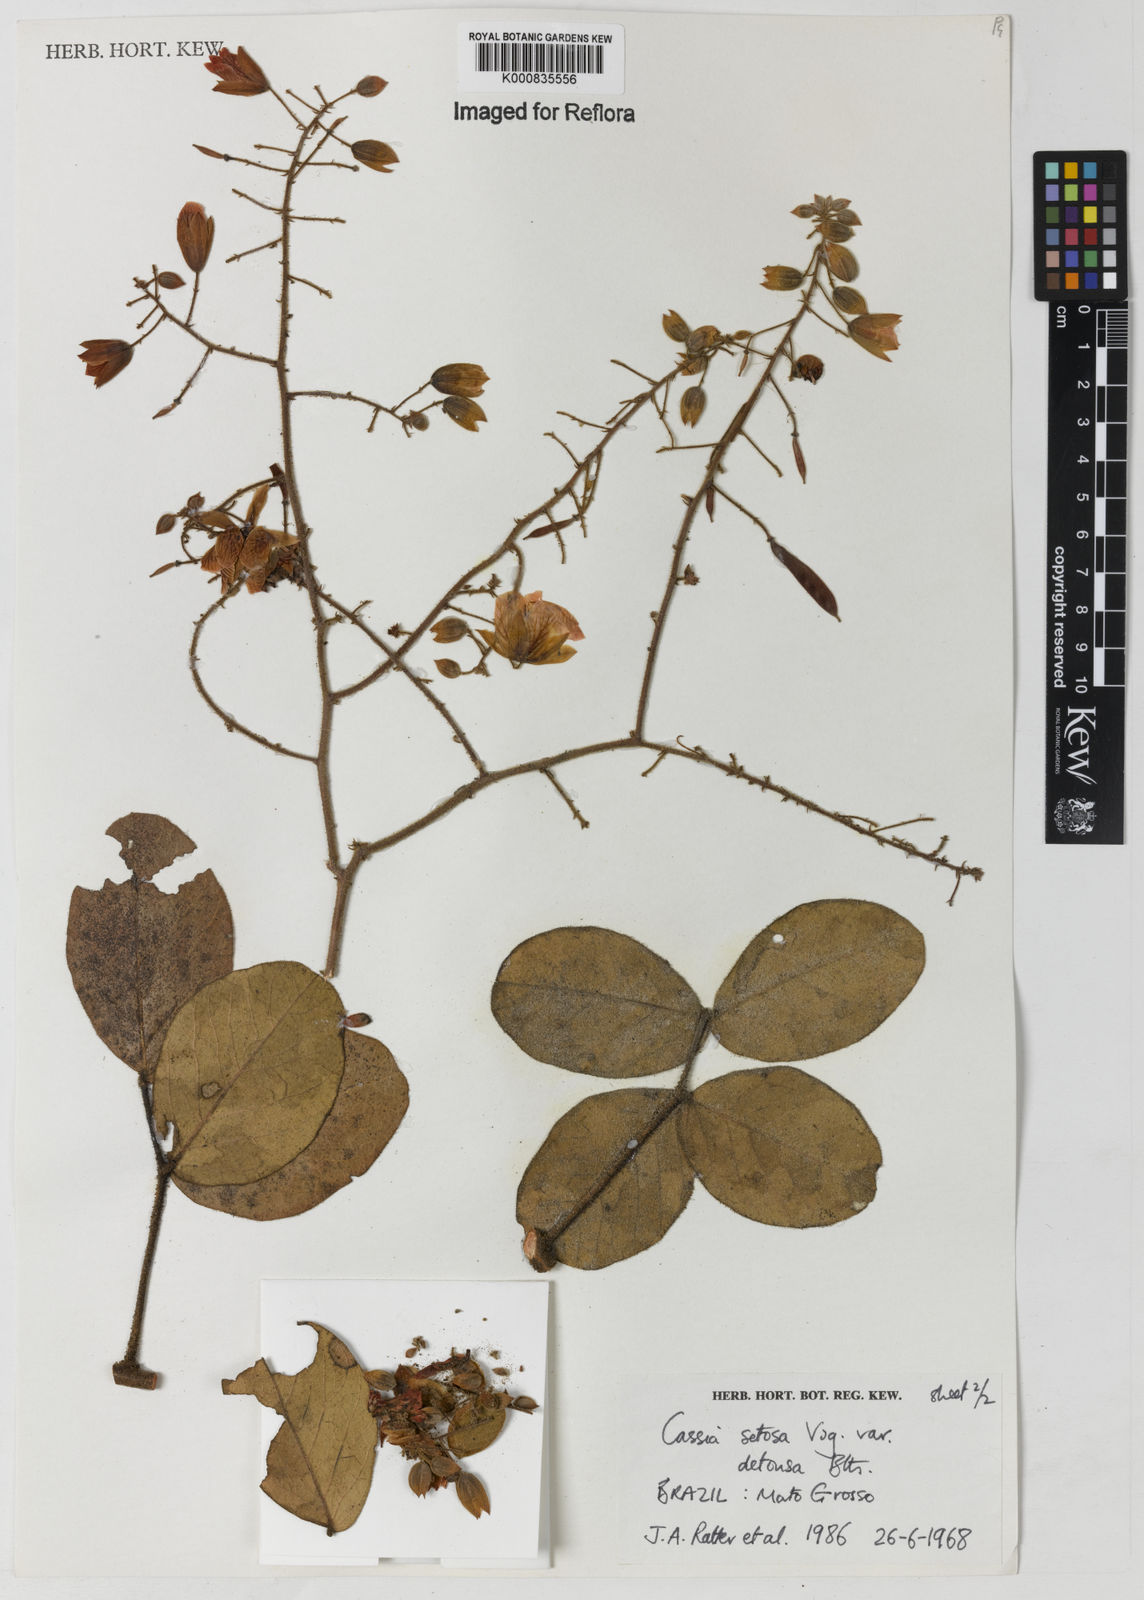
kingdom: Plantae
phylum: Tracheophyta
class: Magnoliopsida
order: Fabales
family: Fabaceae
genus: Chamaecrista
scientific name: Chamaecrista setosa
